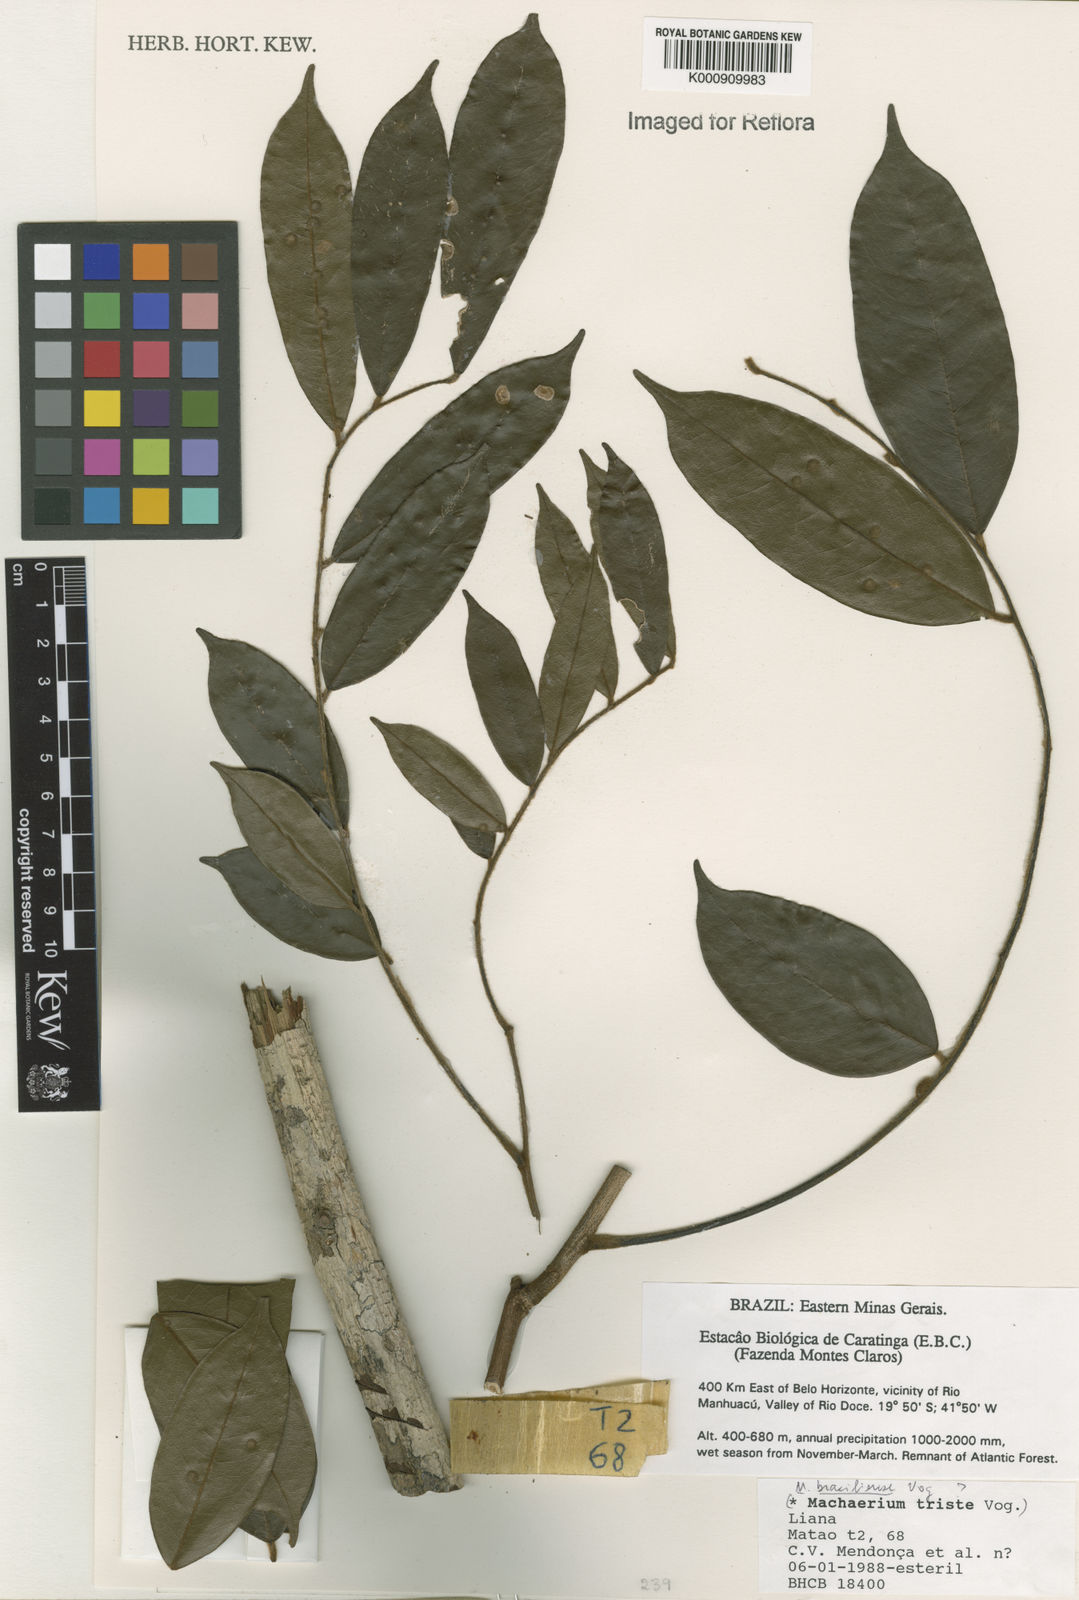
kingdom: Plantae
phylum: Tracheophyta
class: Magnoliopsida
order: Fabales
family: Fabaceae
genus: Machaerium
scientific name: Machaerium brasiliense
